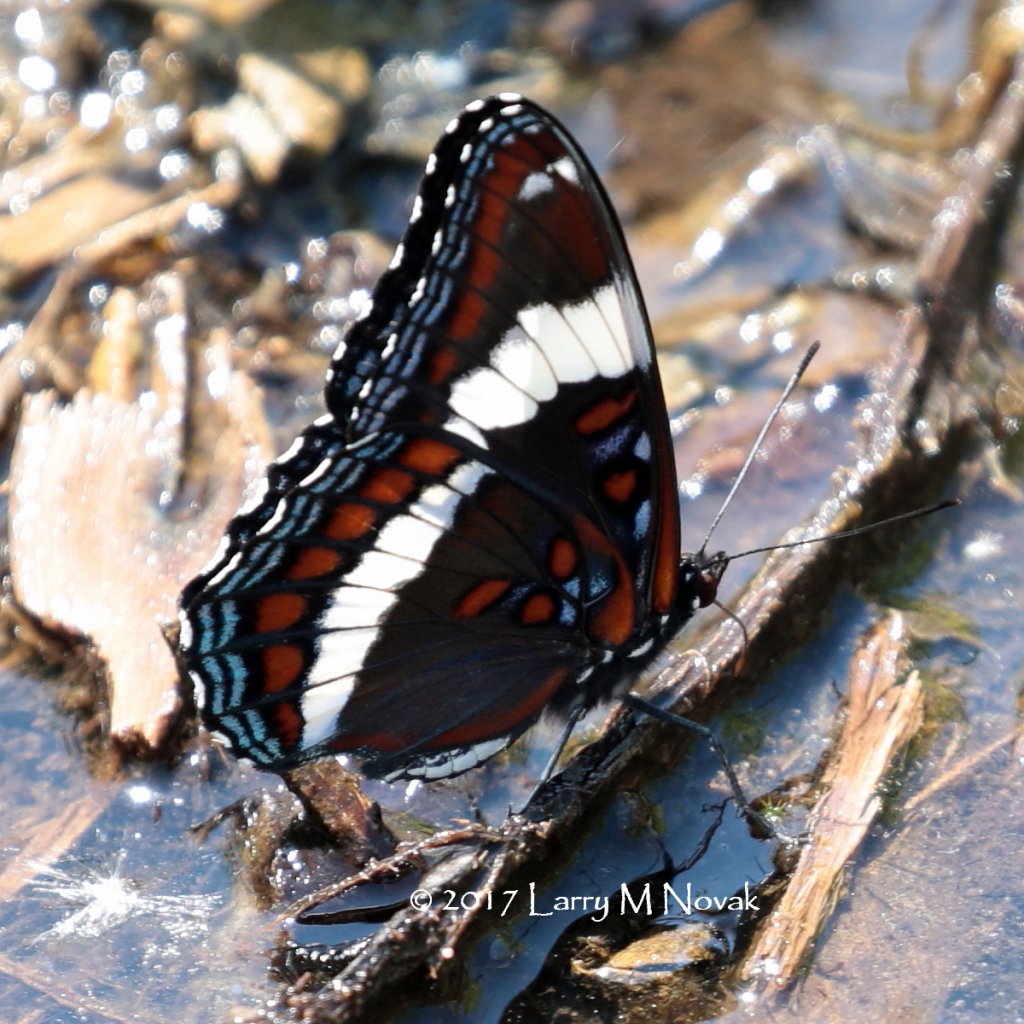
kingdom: Animalia
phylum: Arthropoda
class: Insecta
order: Lepidoptera
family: Nymphalidae
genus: Limenitis
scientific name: Limenitis arthemis
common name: Red-spotted Admiral
